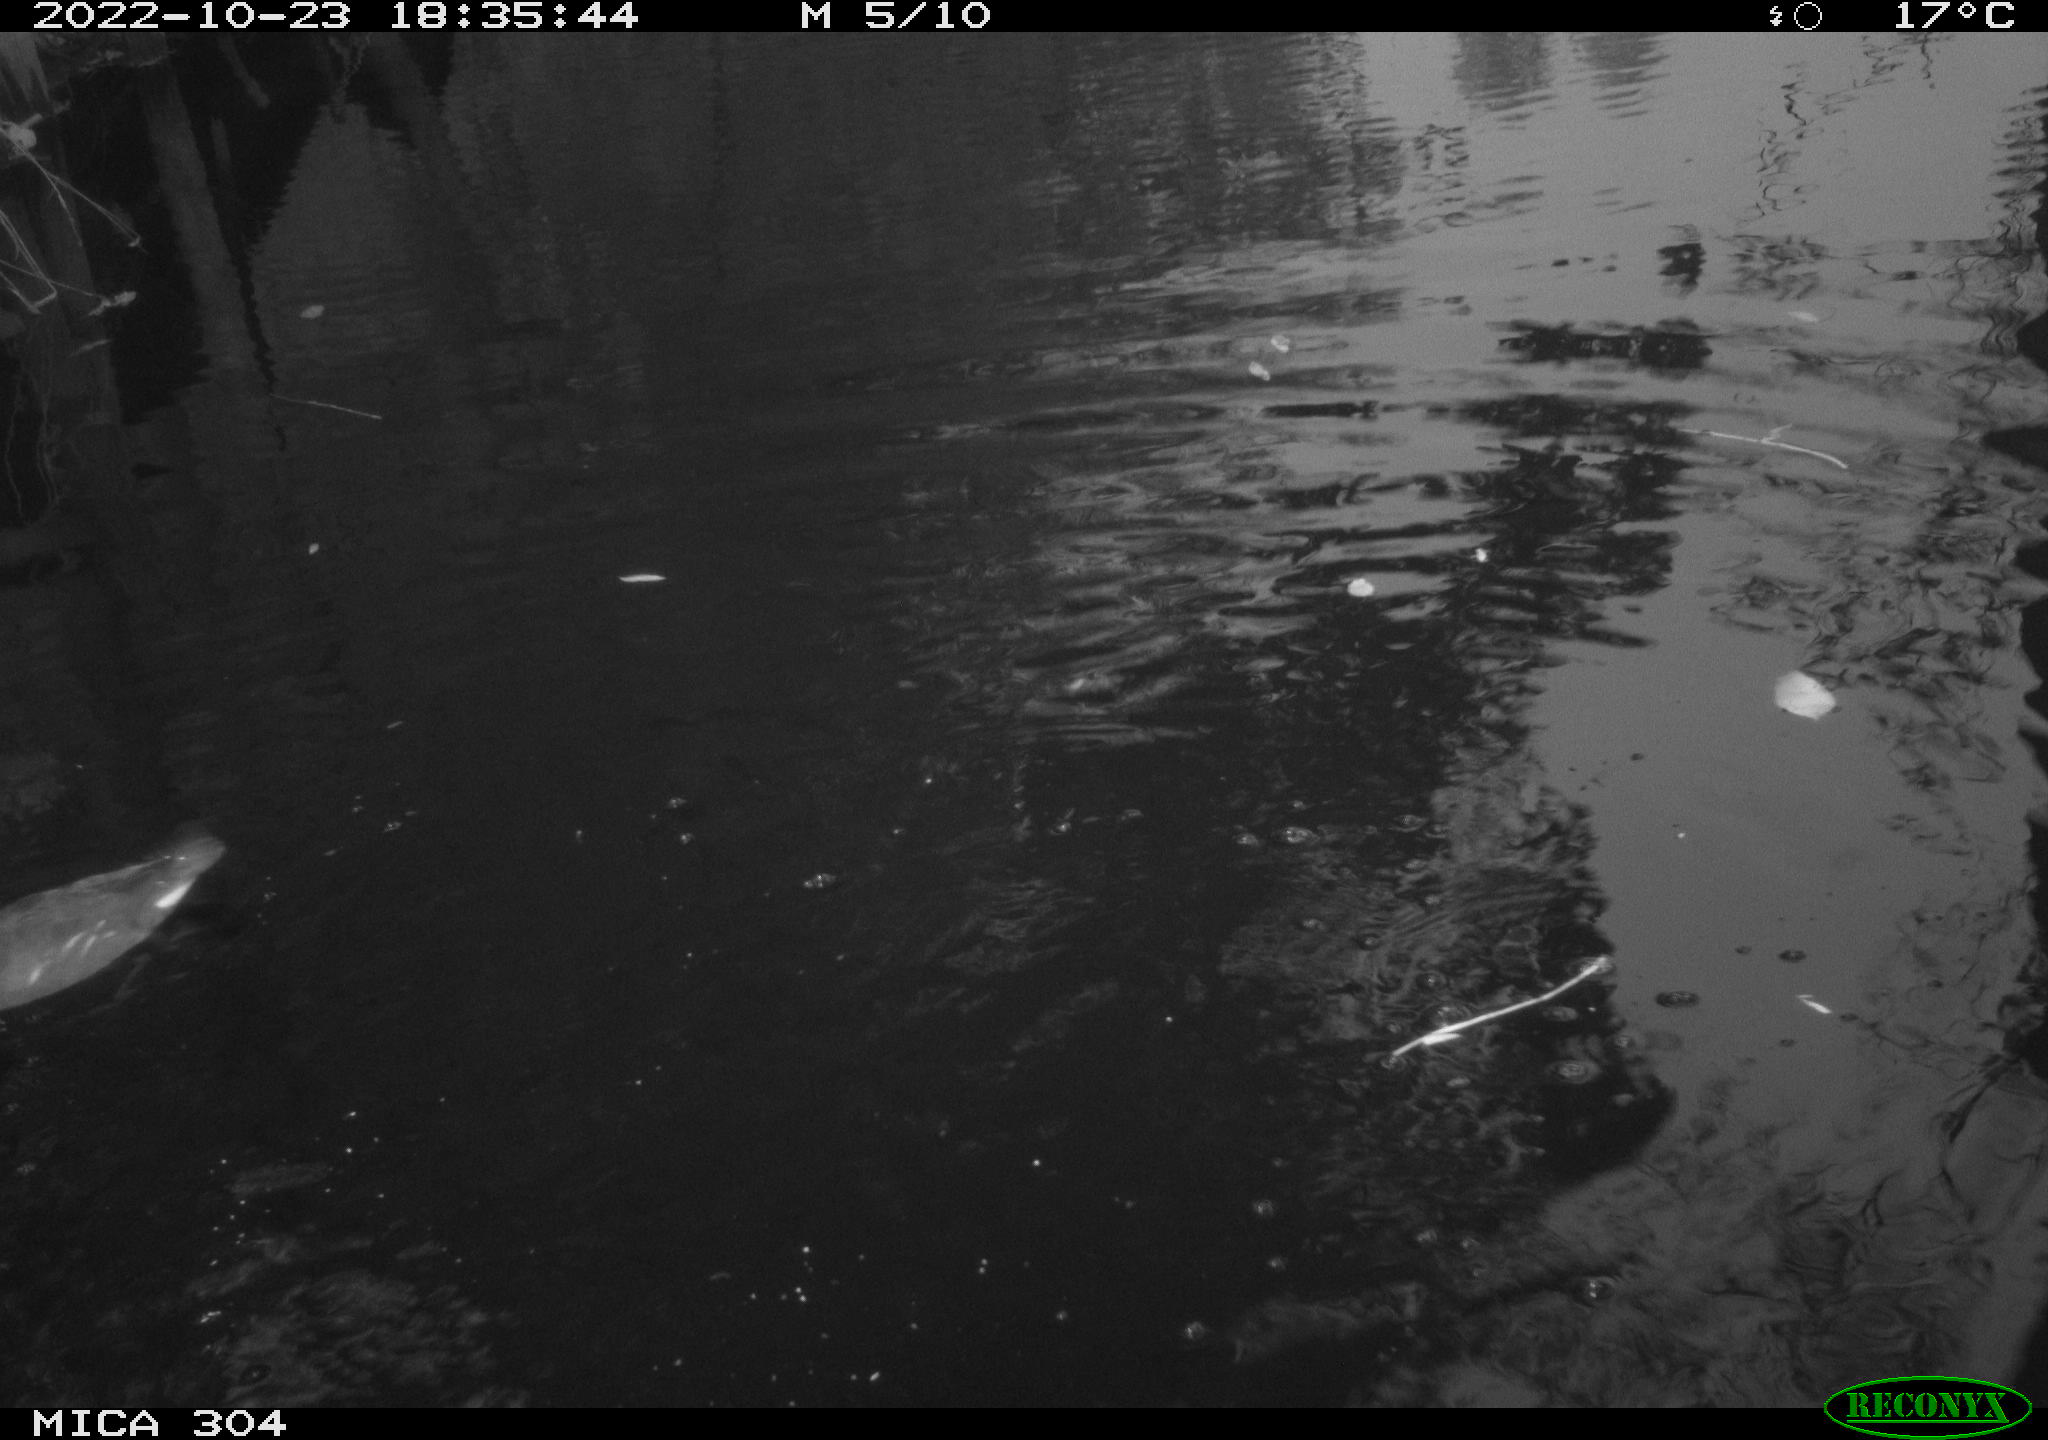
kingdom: Animalia
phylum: Chordata
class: Aves
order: Gruiformes
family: Rallidae
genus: Gallinula
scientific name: Gallinula chloropus
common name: Common moorhen
